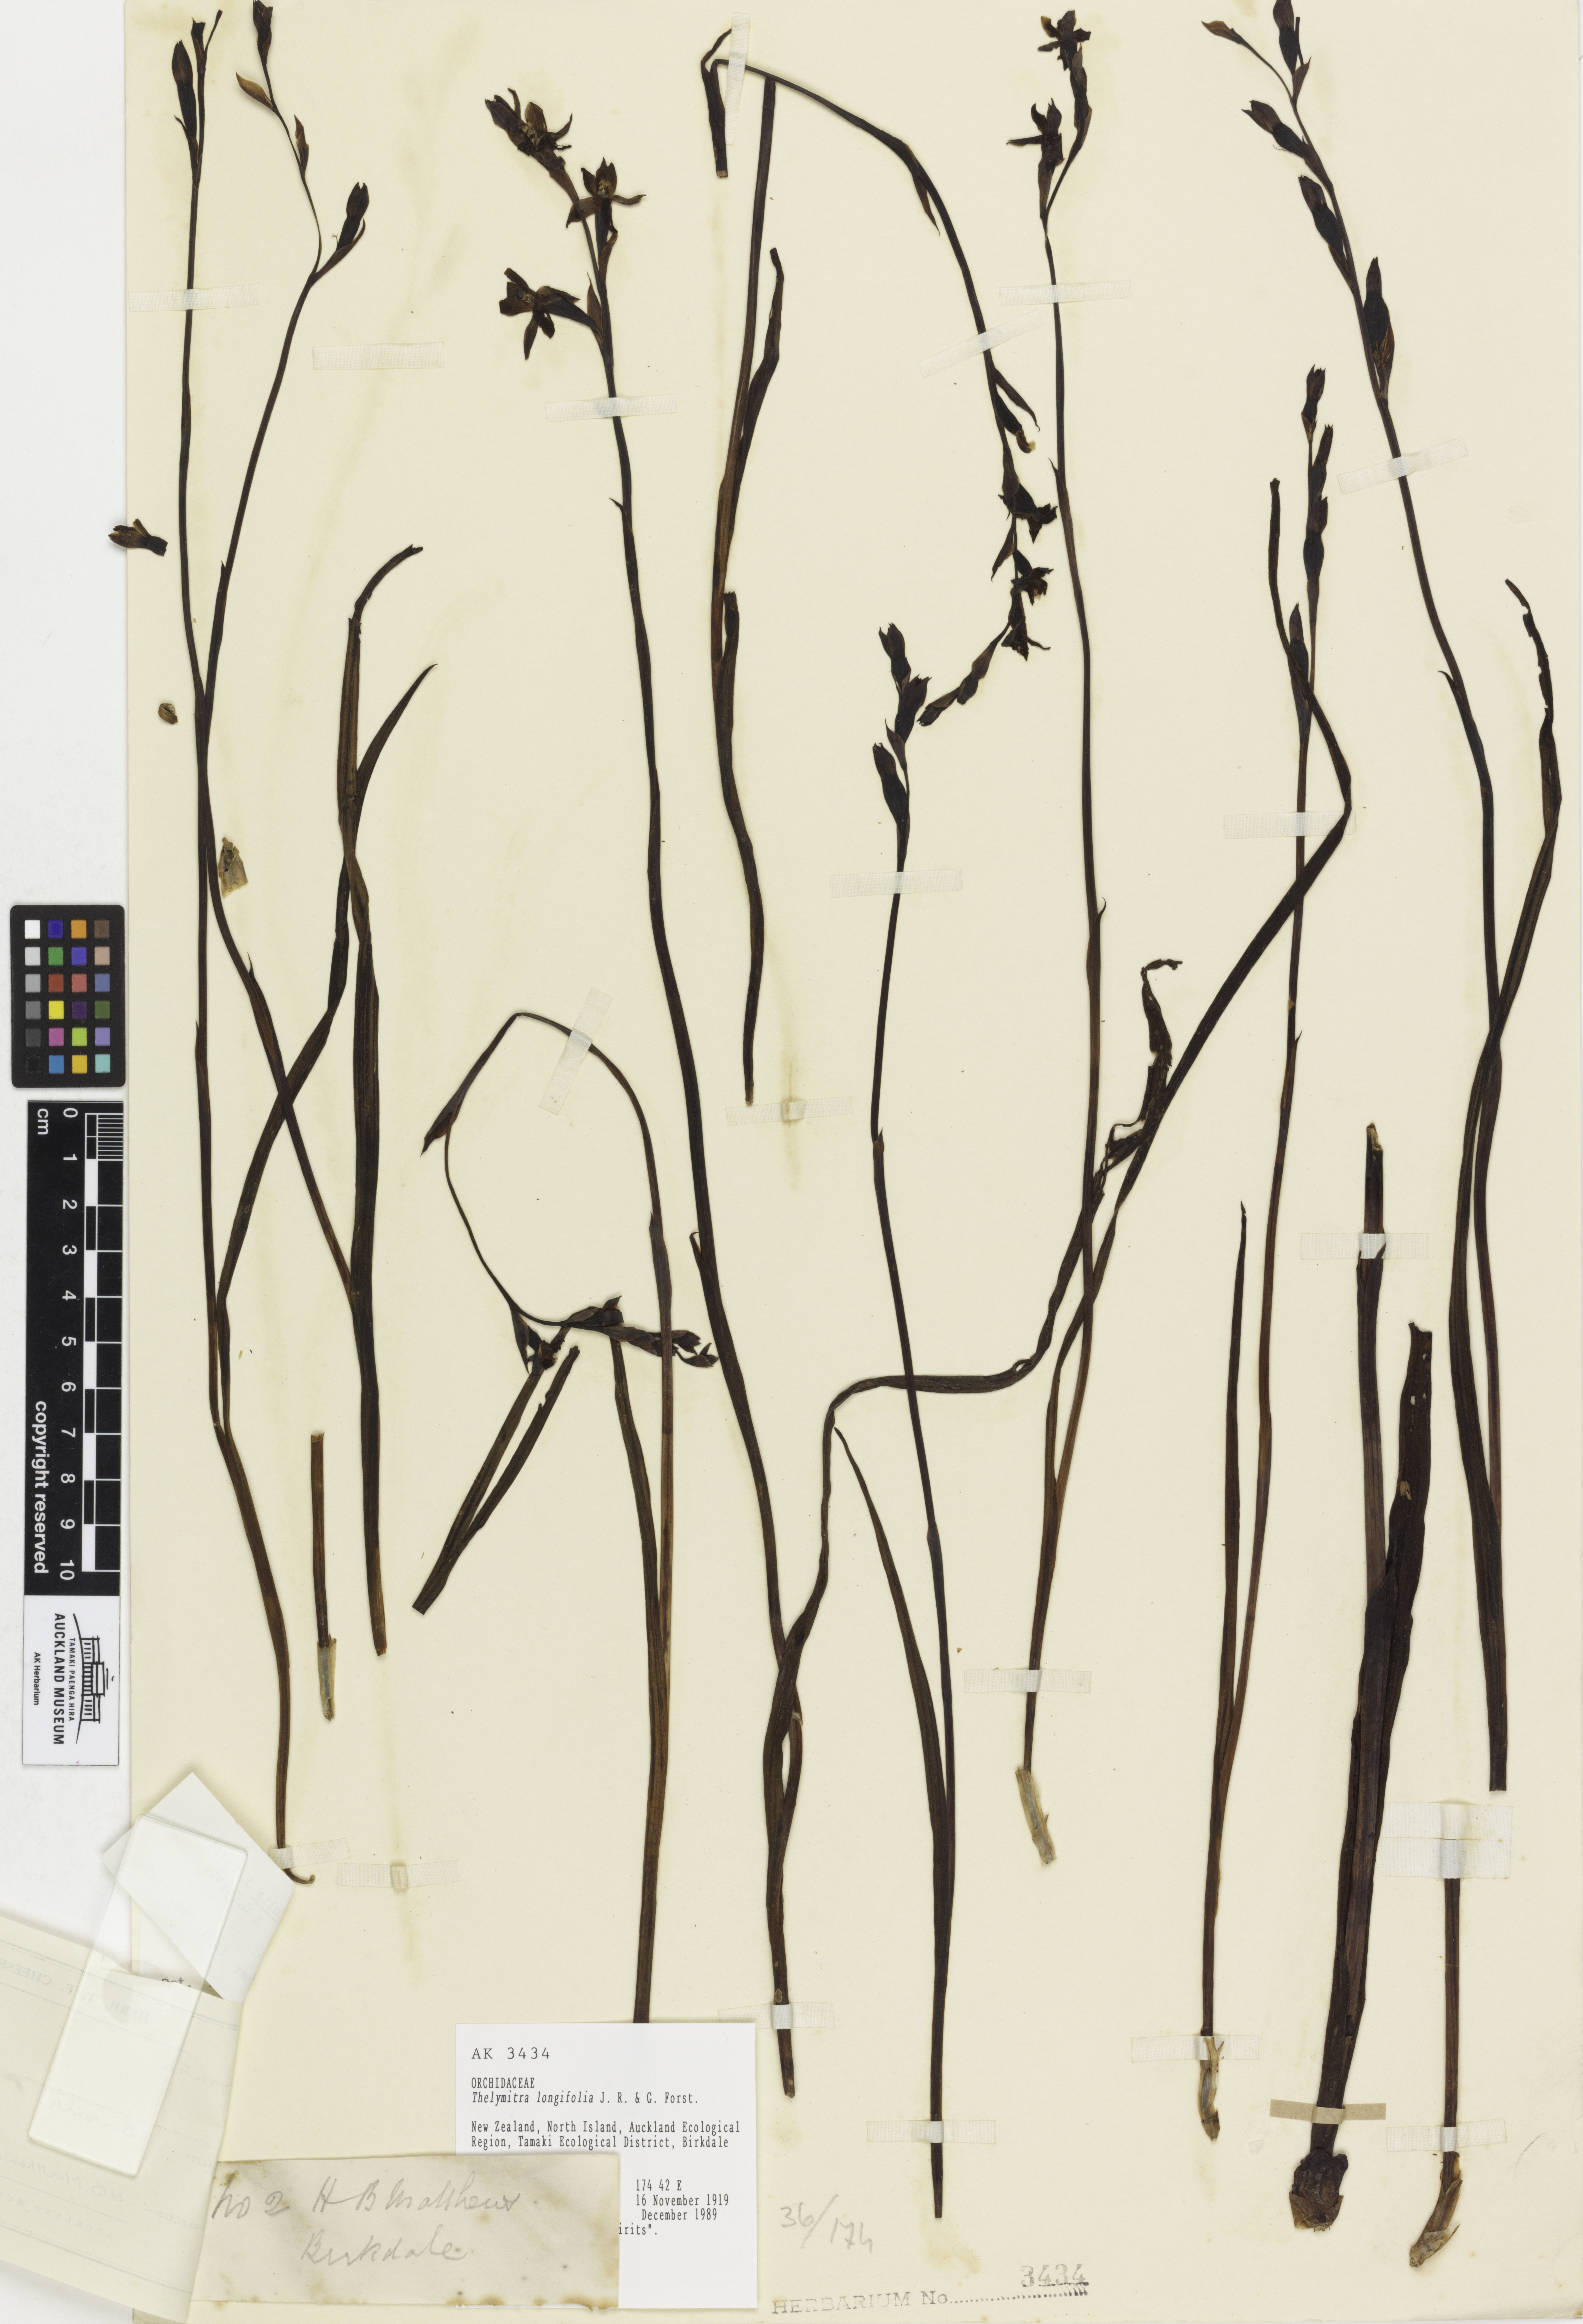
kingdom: Plantae
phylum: Tracheophyta
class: Liliopsida
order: Asparagales
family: Orchidaceae
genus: Thelymitra
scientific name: Thelymitra longifolia
